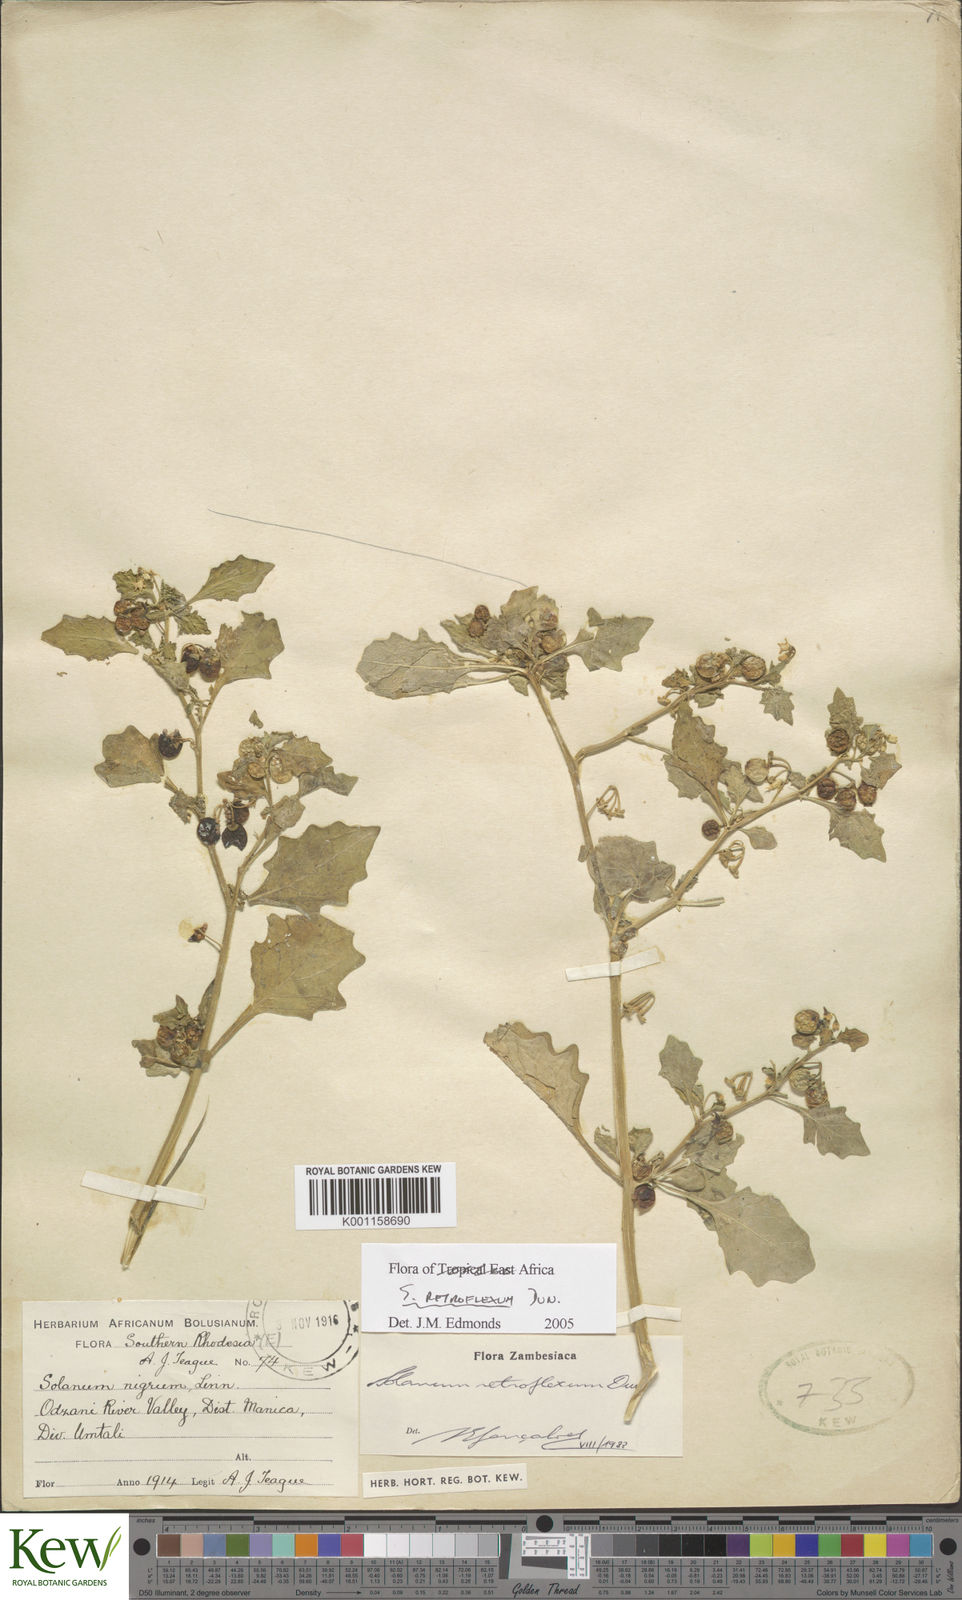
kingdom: Plantae
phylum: Tracheophyta
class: Magnoliopsida
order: Solanales
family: Solanaceae
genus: Solanum
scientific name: Solanum retroflexum
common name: Wonderberry
